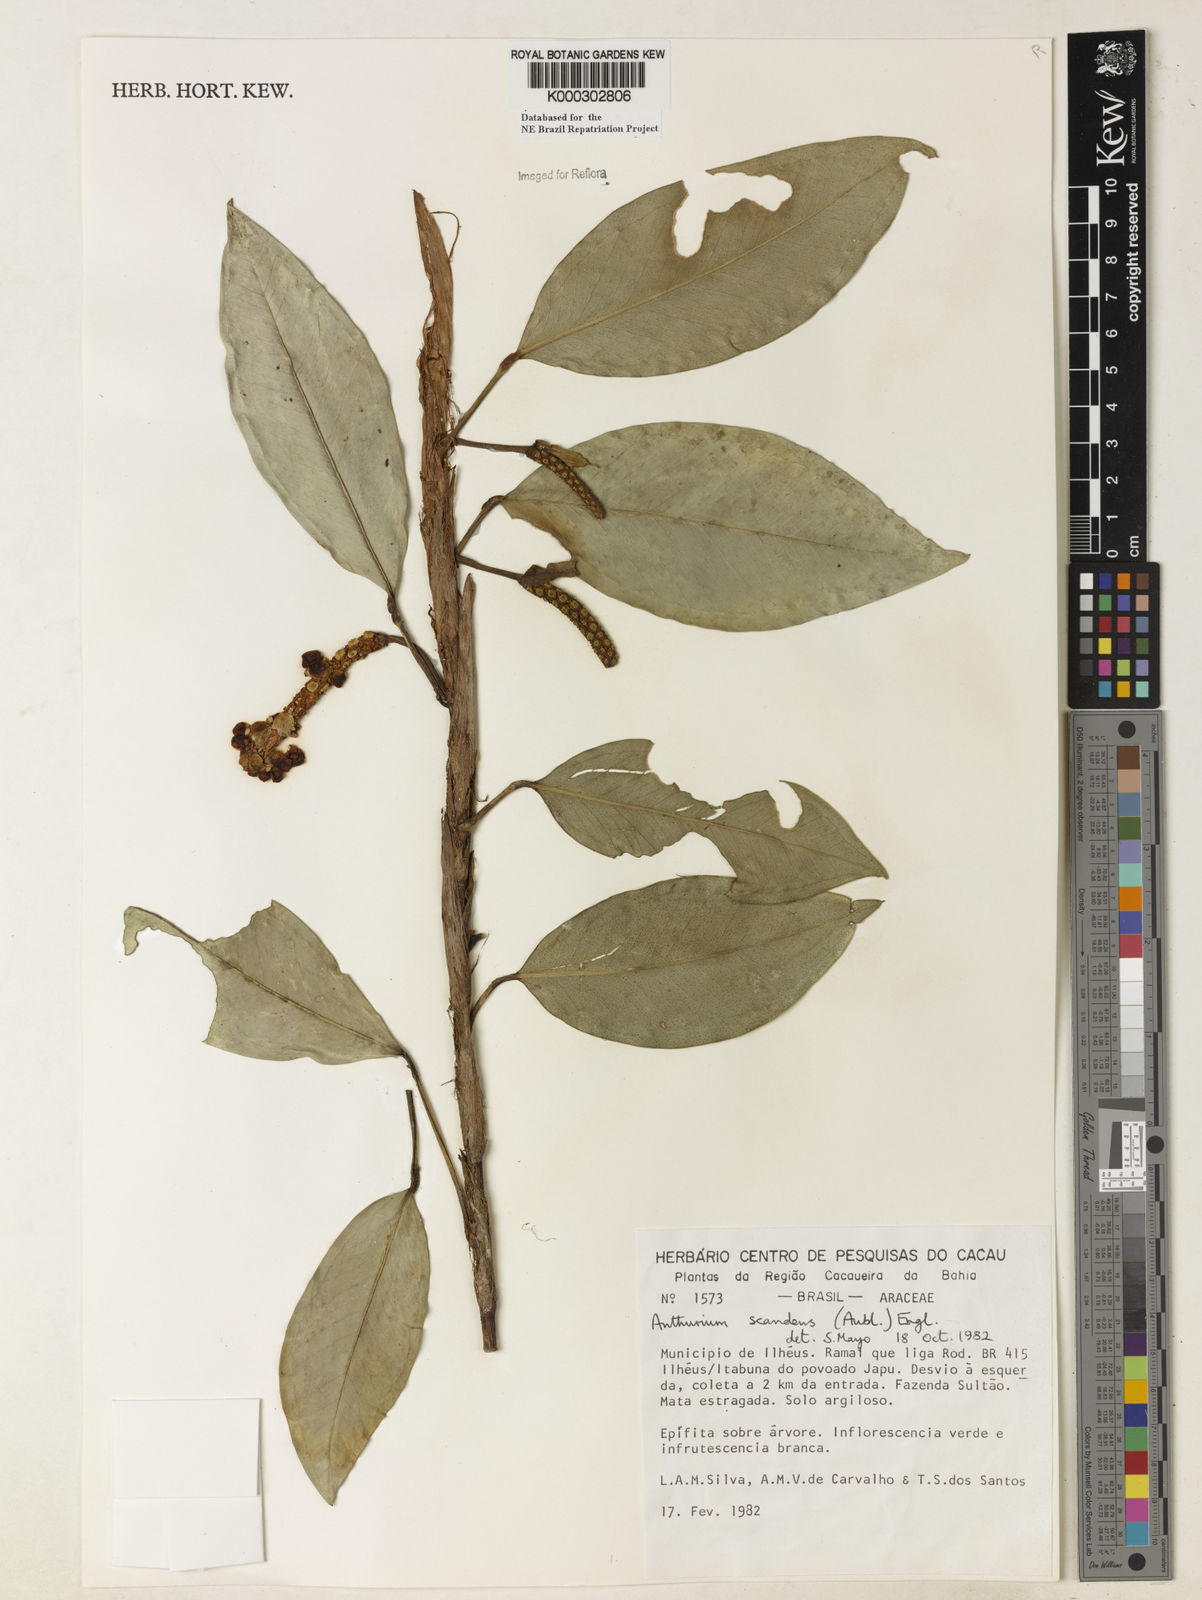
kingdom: Plantae
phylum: Tracheophyta
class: Liliopsida
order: Alismatales
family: Araceae
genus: Anthurium
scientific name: Anthurium scandens
